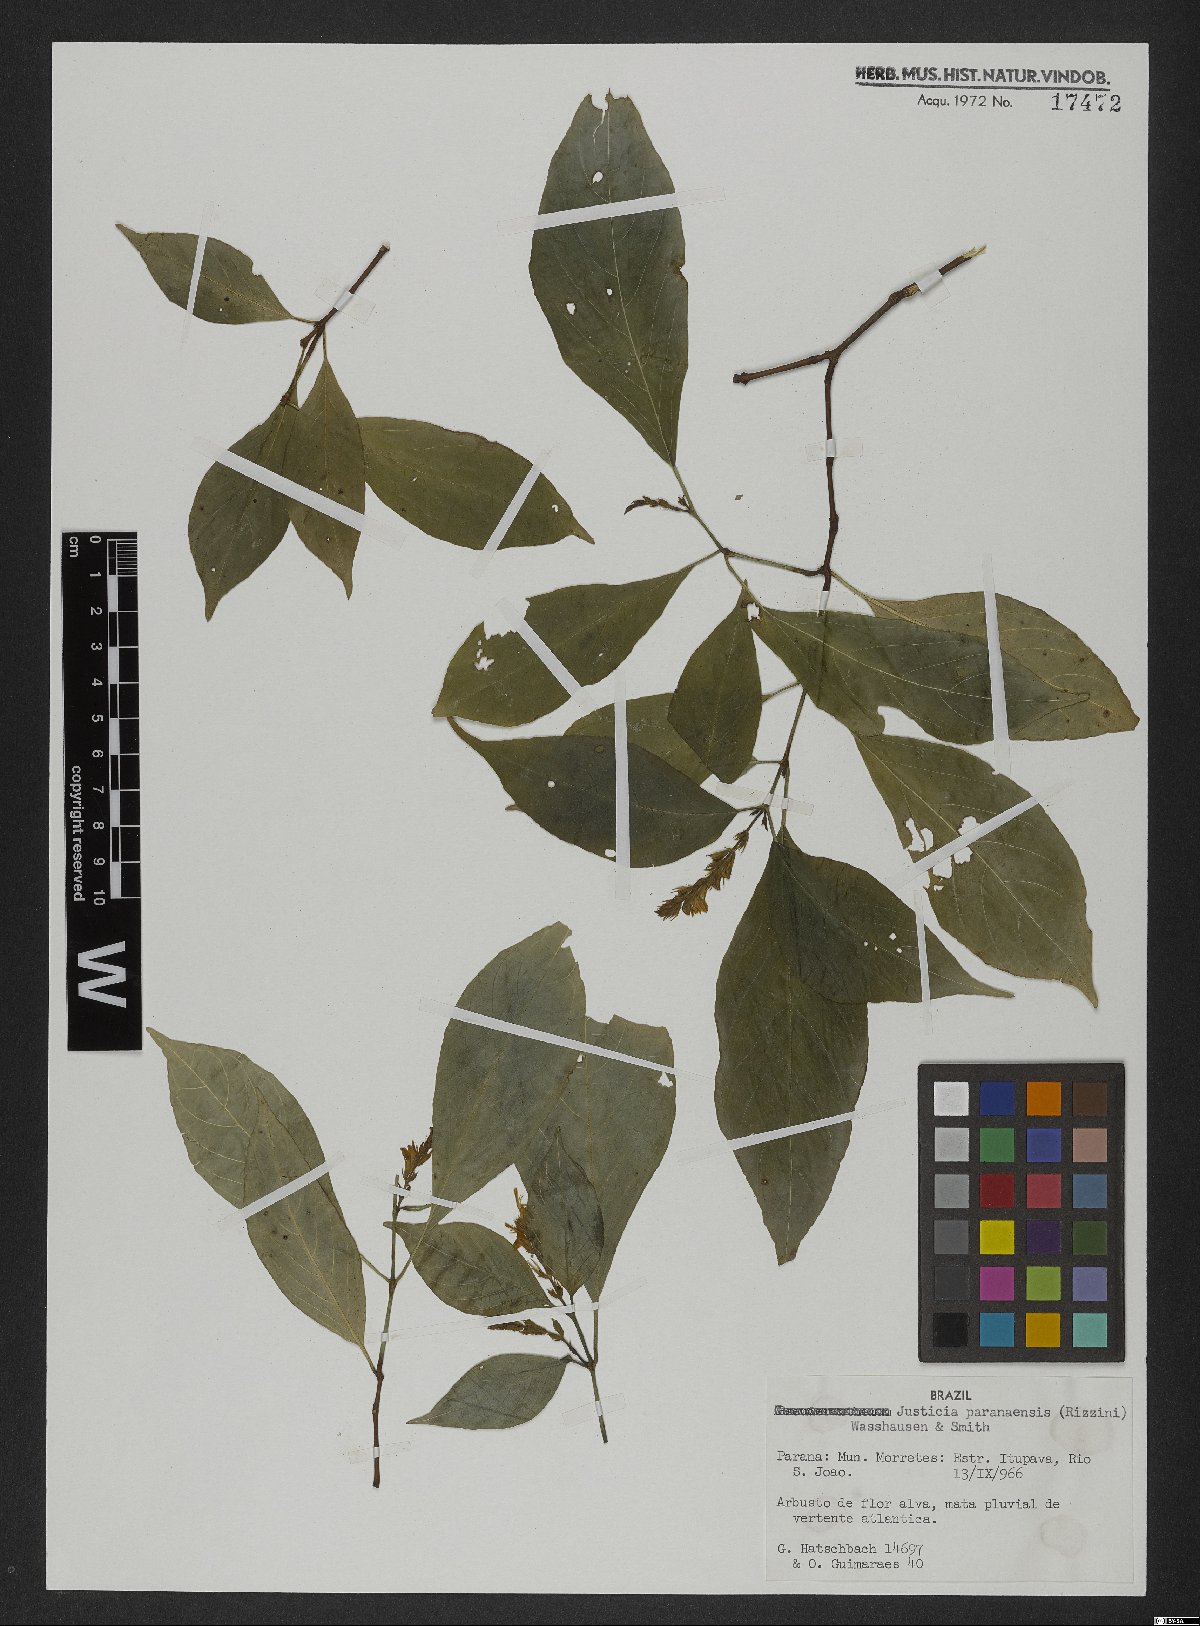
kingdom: Plantae
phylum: Tracheophyta
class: Magnoliopsida
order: Lamiales
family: Acanthaceae
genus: Schaueria
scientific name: Schaueria paranaensis
